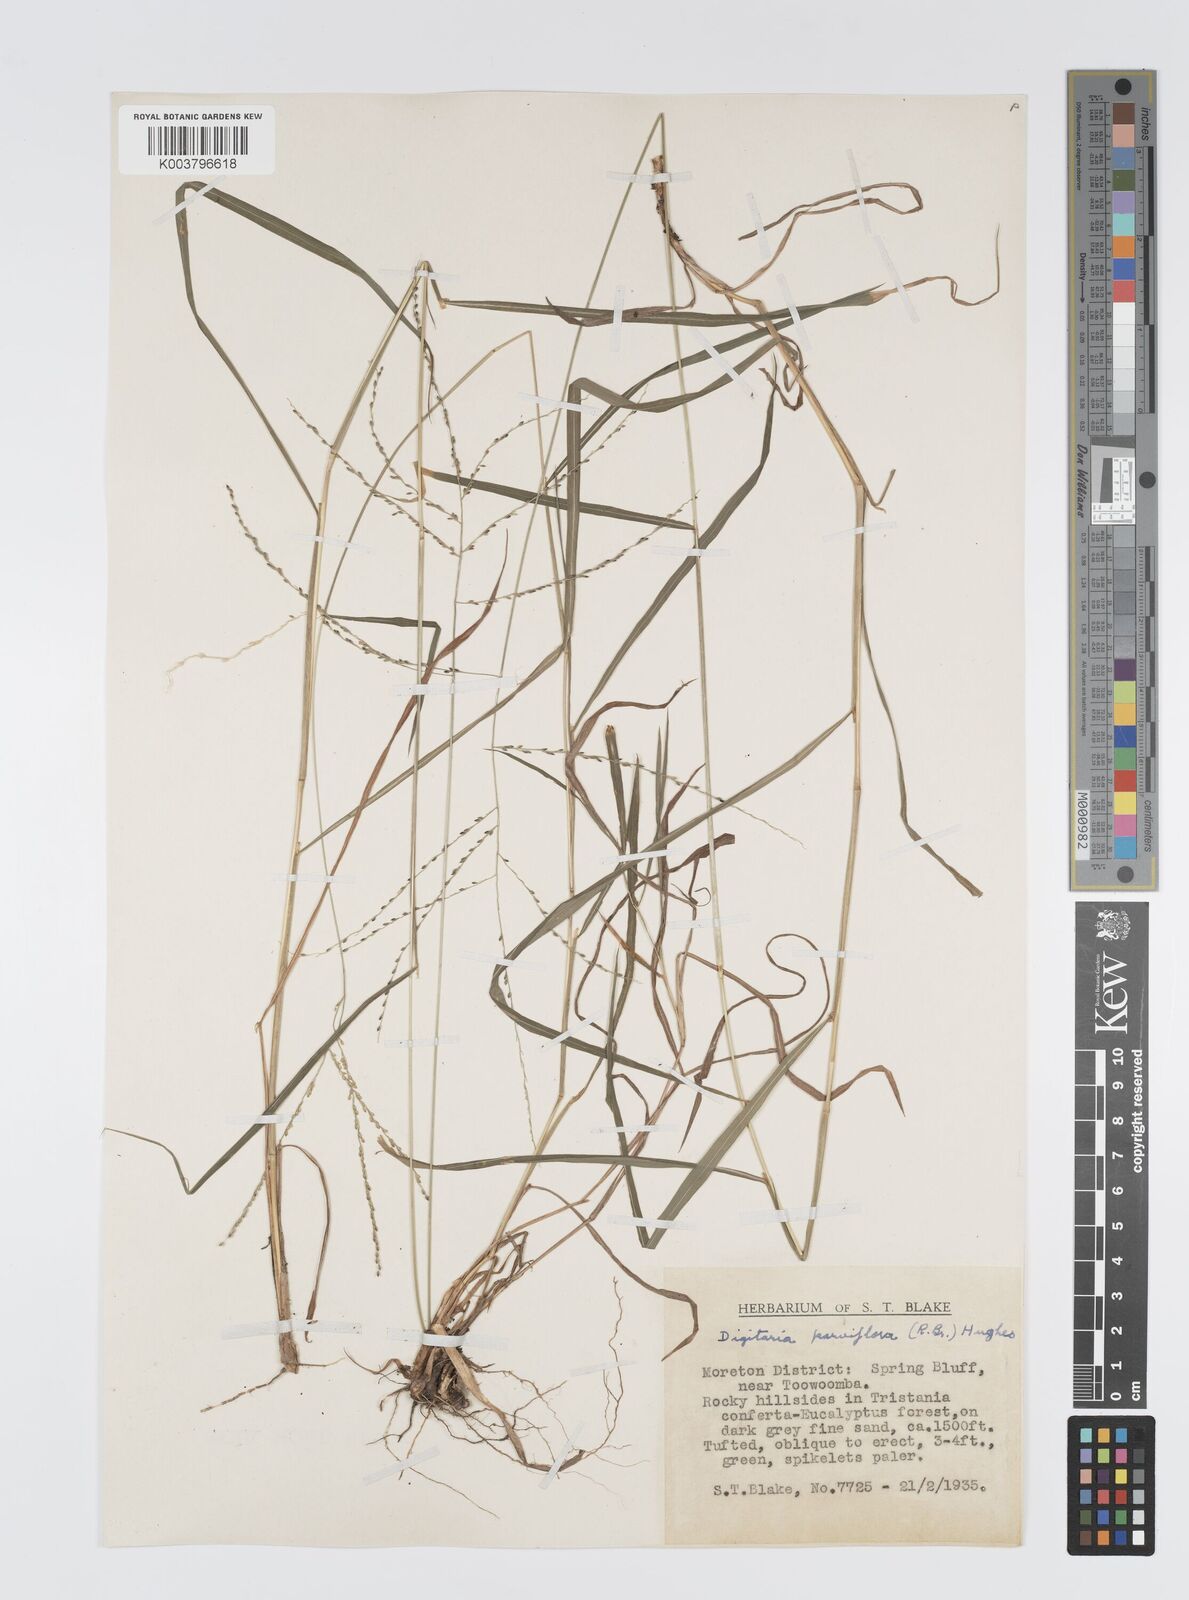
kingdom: Plantae
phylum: Tracheophyta
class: Liliopsida
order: Poales
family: Poaceae
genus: Digitaria
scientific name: Digitaria parviflora
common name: Small-flower finger grass
